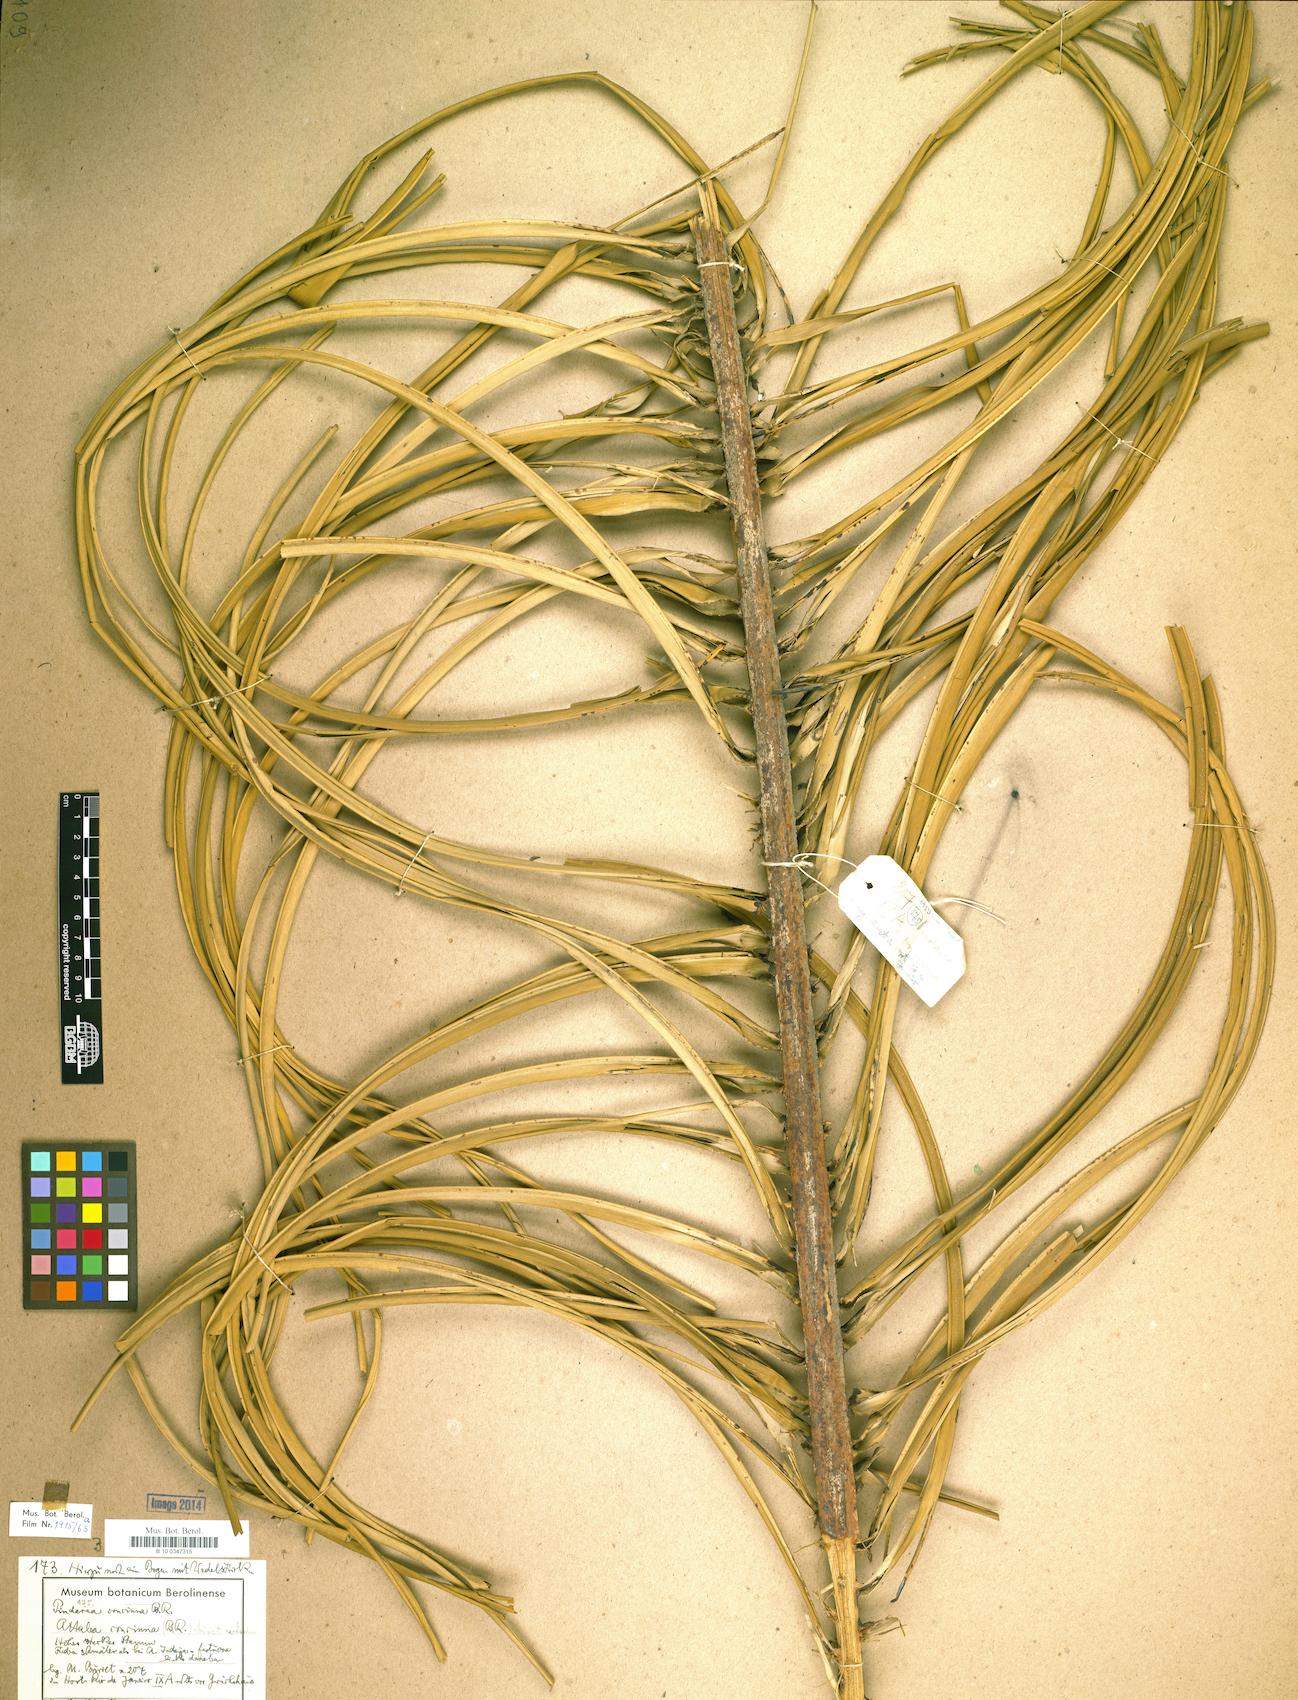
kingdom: Plantae
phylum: Tracheophyta
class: Liliopsida
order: Arecales
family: Arecaceae
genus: Attalea
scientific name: Attalea dubia
